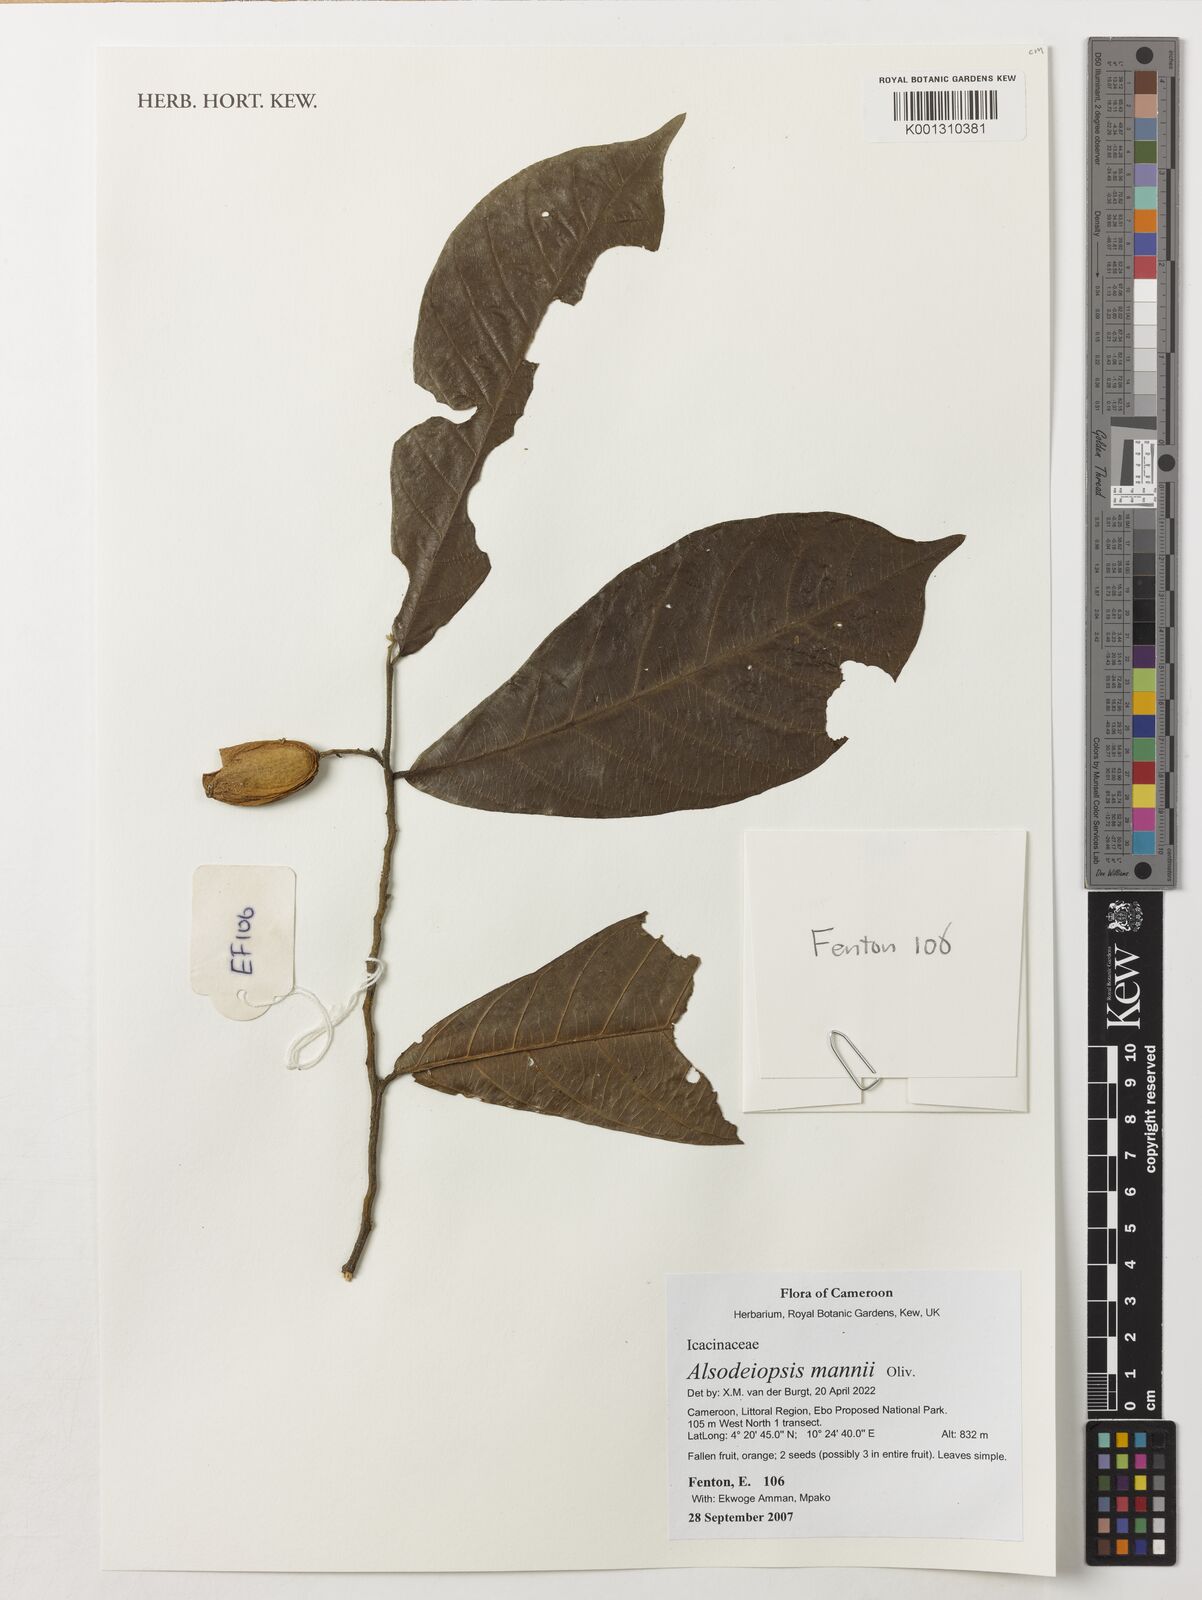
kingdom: Plantae
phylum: Tracheophyta
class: Magnoliopsida
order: Icacinales
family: Icacinaceae
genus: Alsodeiopsis
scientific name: Alsodeiopsis mannii
